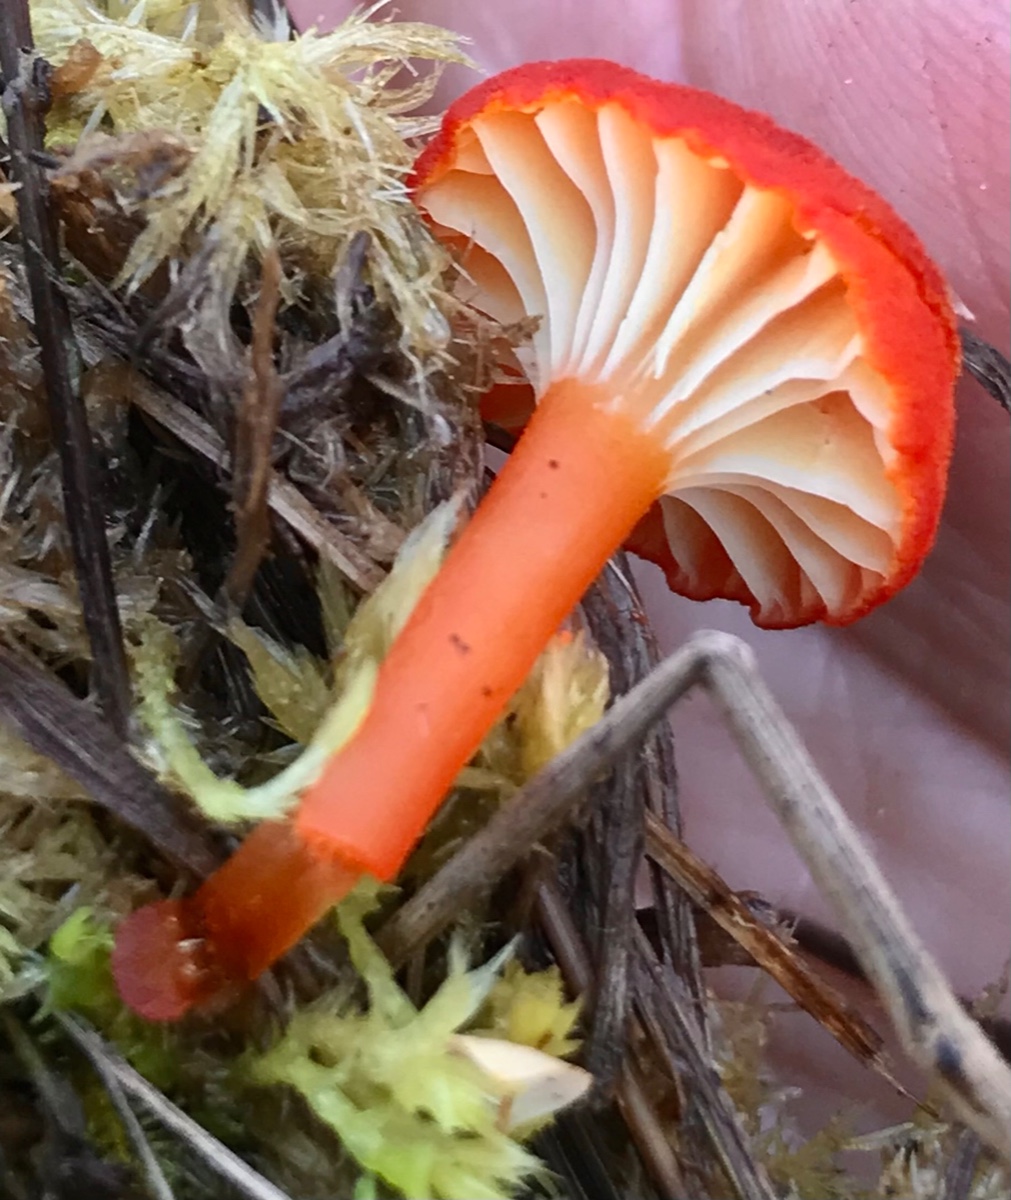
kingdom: Fungi
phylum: Basidiomycota
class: Agaricomycetes
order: Agaricales
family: Hygrophoraceae
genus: Hygrocybe
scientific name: Hygrocybe coccineocrenata
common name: tørvemos-vokshat
